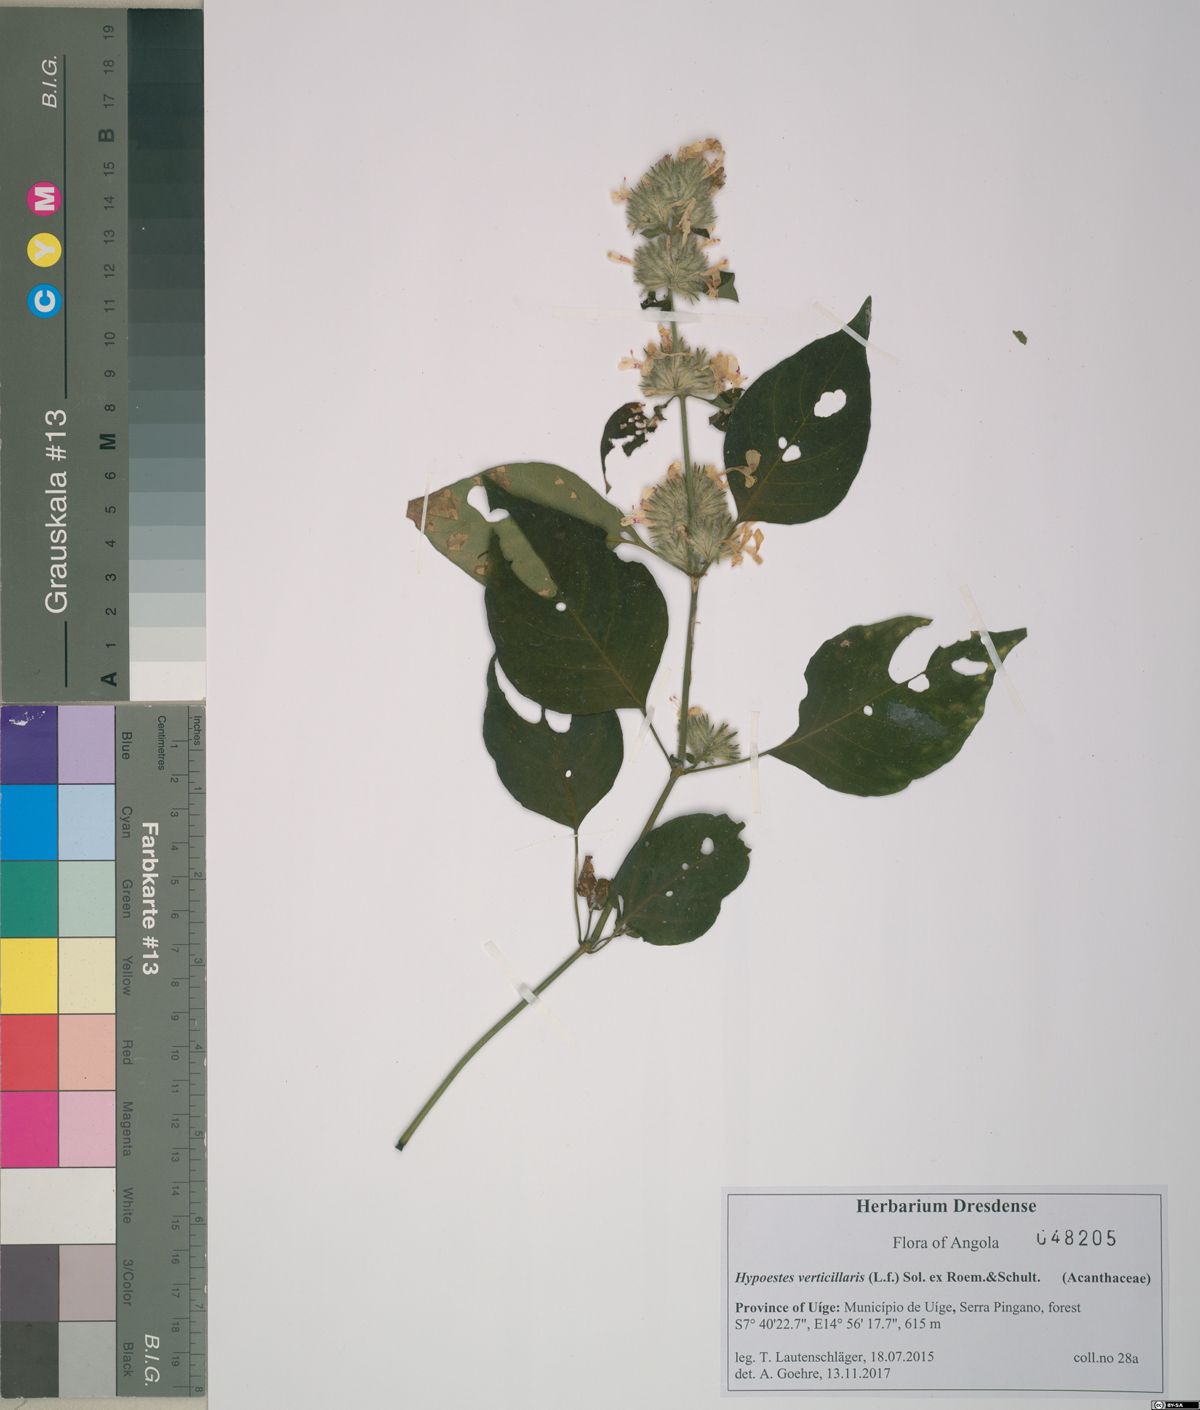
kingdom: Plantae
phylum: Tracheophyta
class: Magnoliopsida
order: Lamiales
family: Acanthaceae
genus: Hypoestes
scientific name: Hypoestes forskaolii
